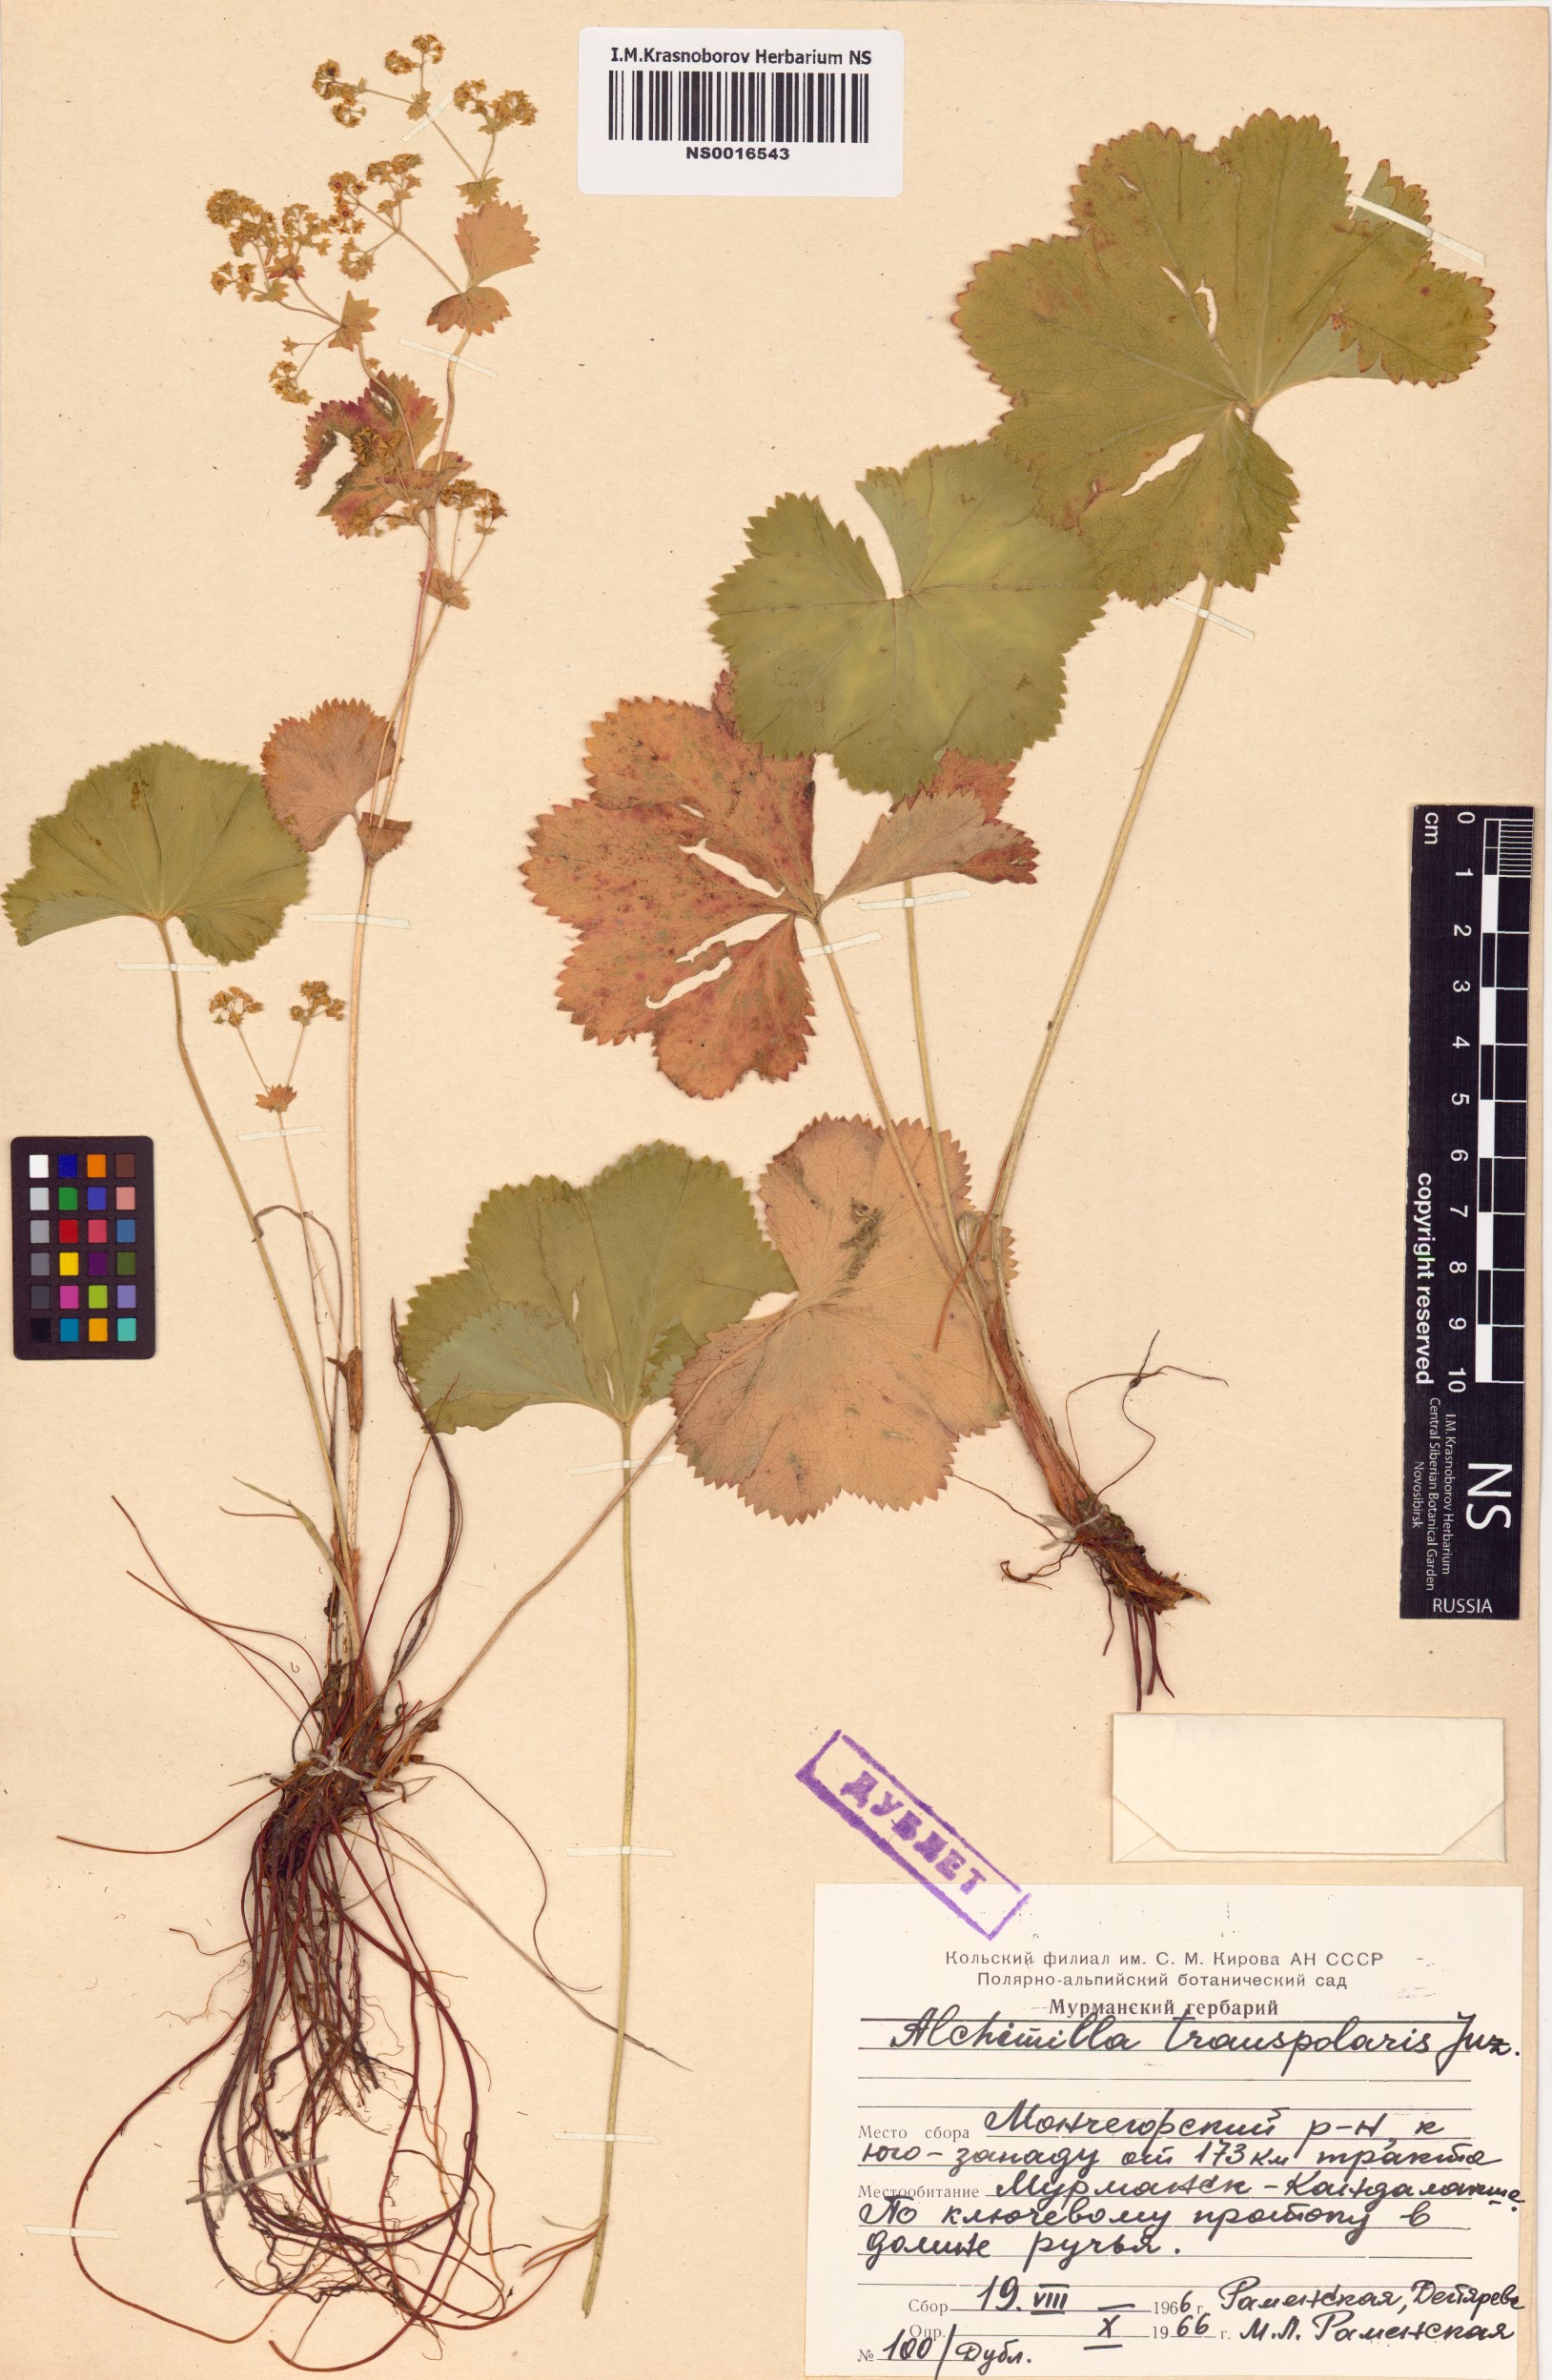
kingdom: Plantae
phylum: Tracheophyta
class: Magnoliopsida
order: Rosales
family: Rosaceae
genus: Alchemilla
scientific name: Alchemilla transpolaris
